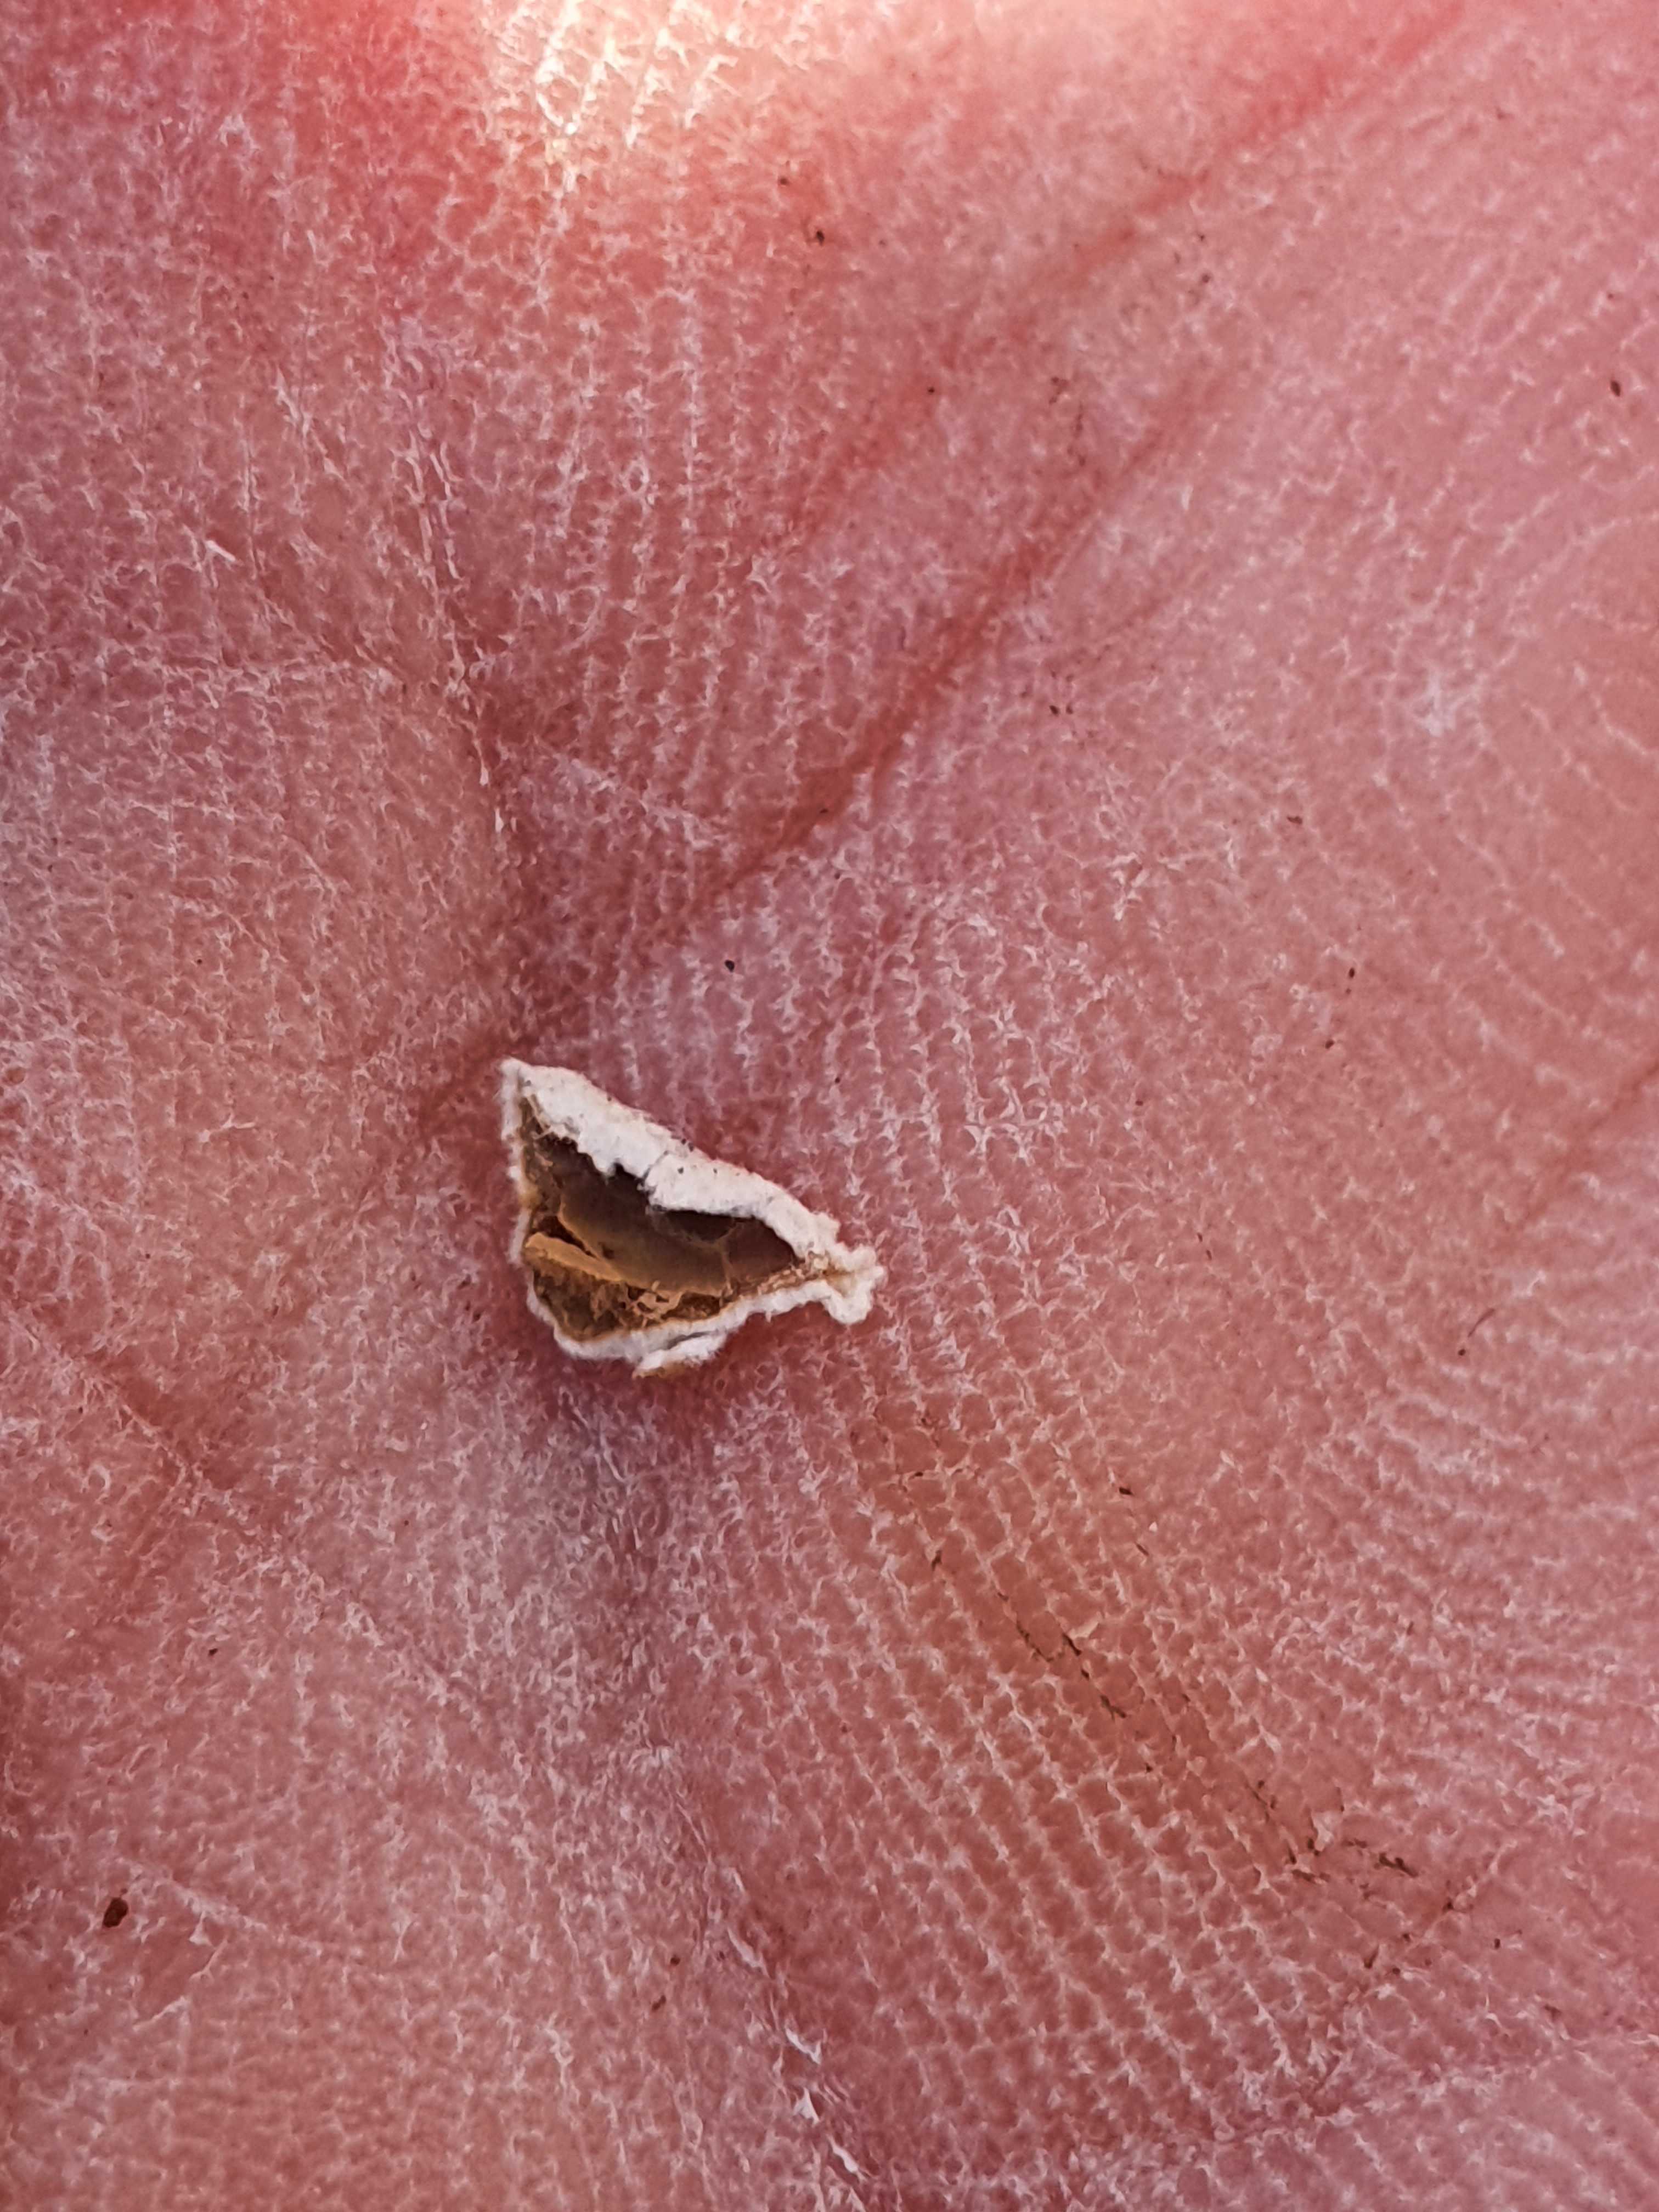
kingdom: Fungi
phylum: Basidiomycota
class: Agaricomycetes
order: Agaricales
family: Schizophyllaceae
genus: Schizophyllum
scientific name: Schizophyllum amplum
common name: poppel-hængeøre
